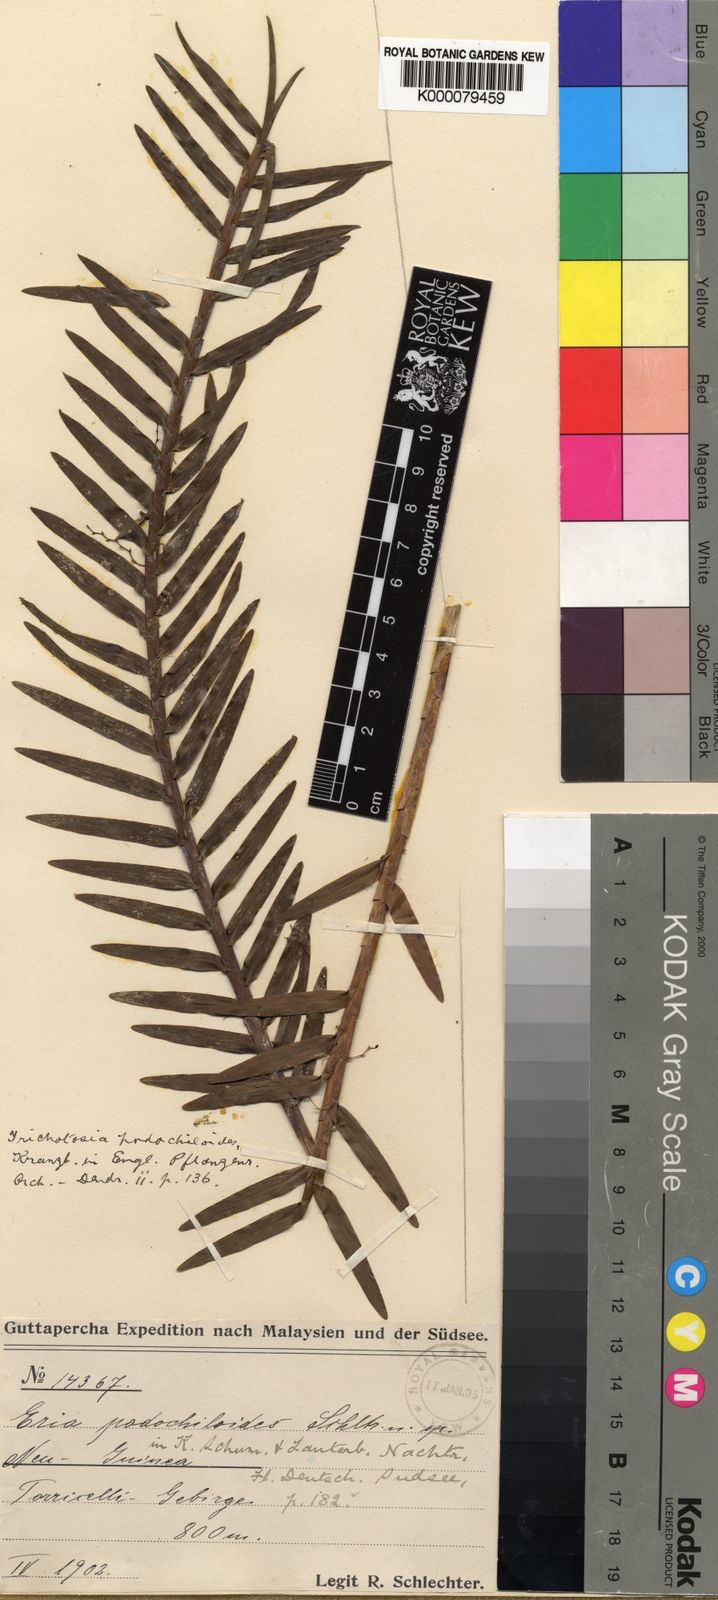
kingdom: Plantae
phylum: Tracheophyta
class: Liliopsida
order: Asparagales
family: Orchidaceae
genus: Poaephyllum
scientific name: Poaephyllum podochiloides
